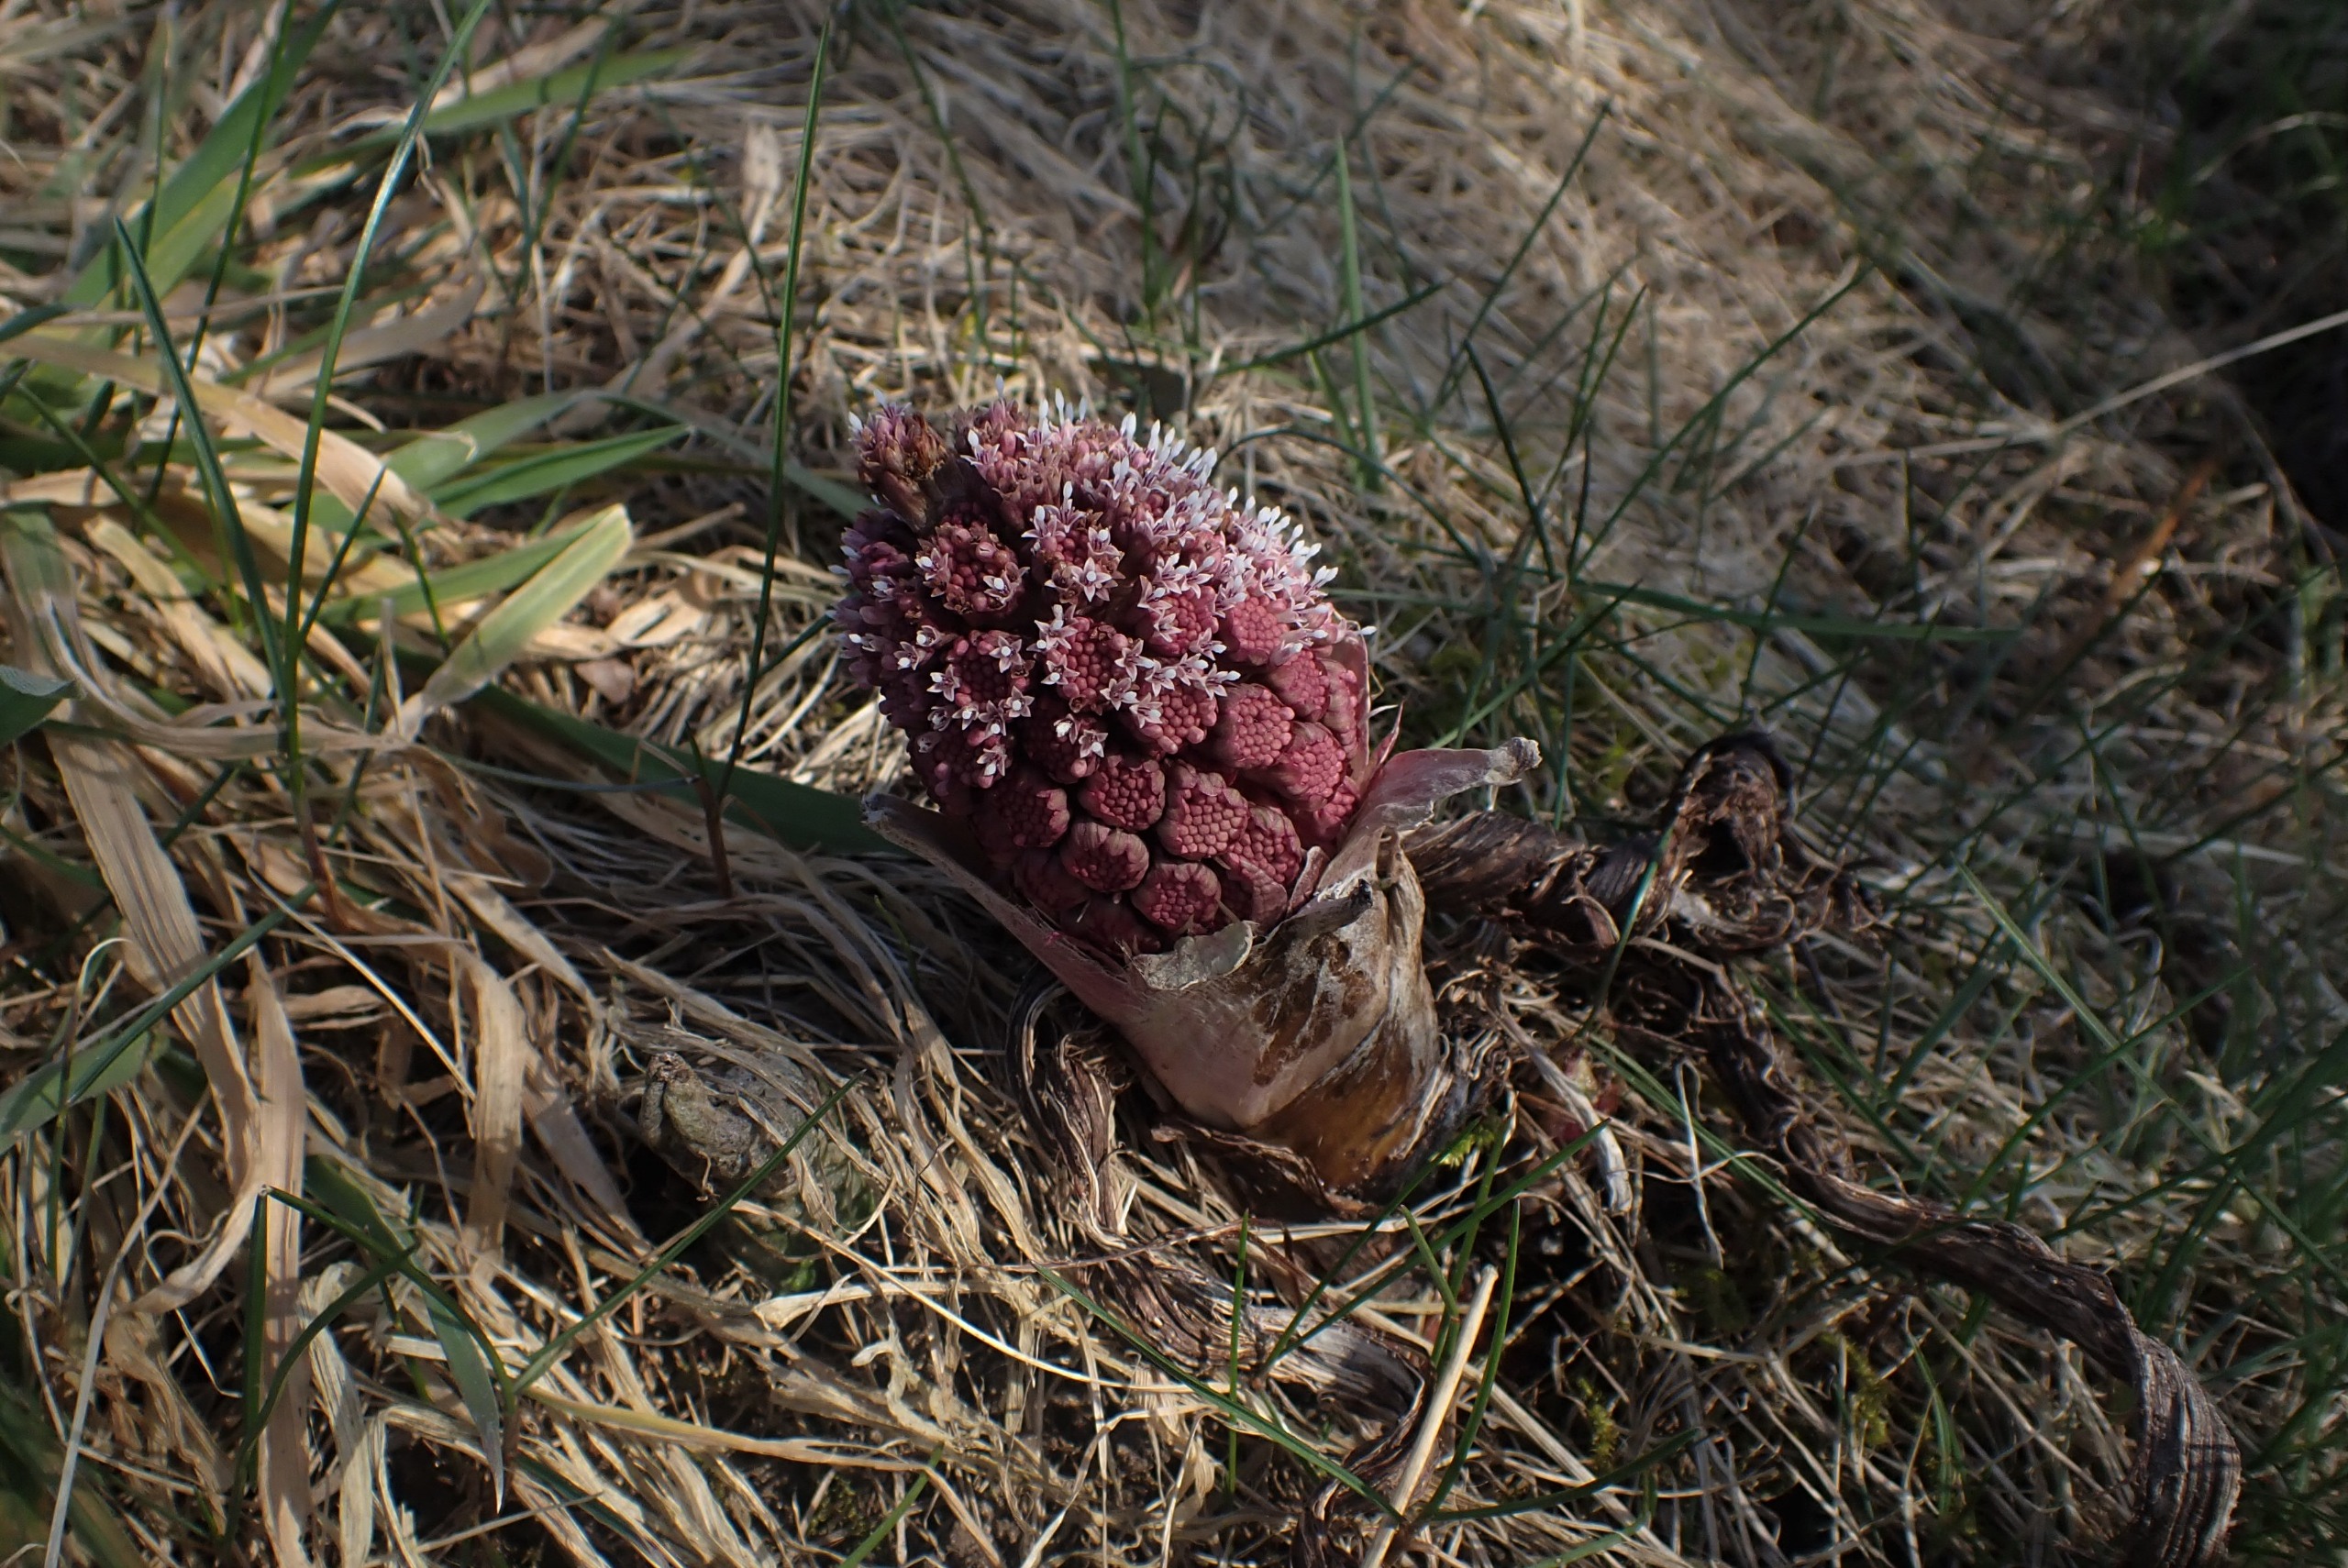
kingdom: Plantae
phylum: Tracheophyta
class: Magnoliopsida
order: Asterales
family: Asteraceae
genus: Petasites
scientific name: Petasites hybridus
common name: Rød hestehov
